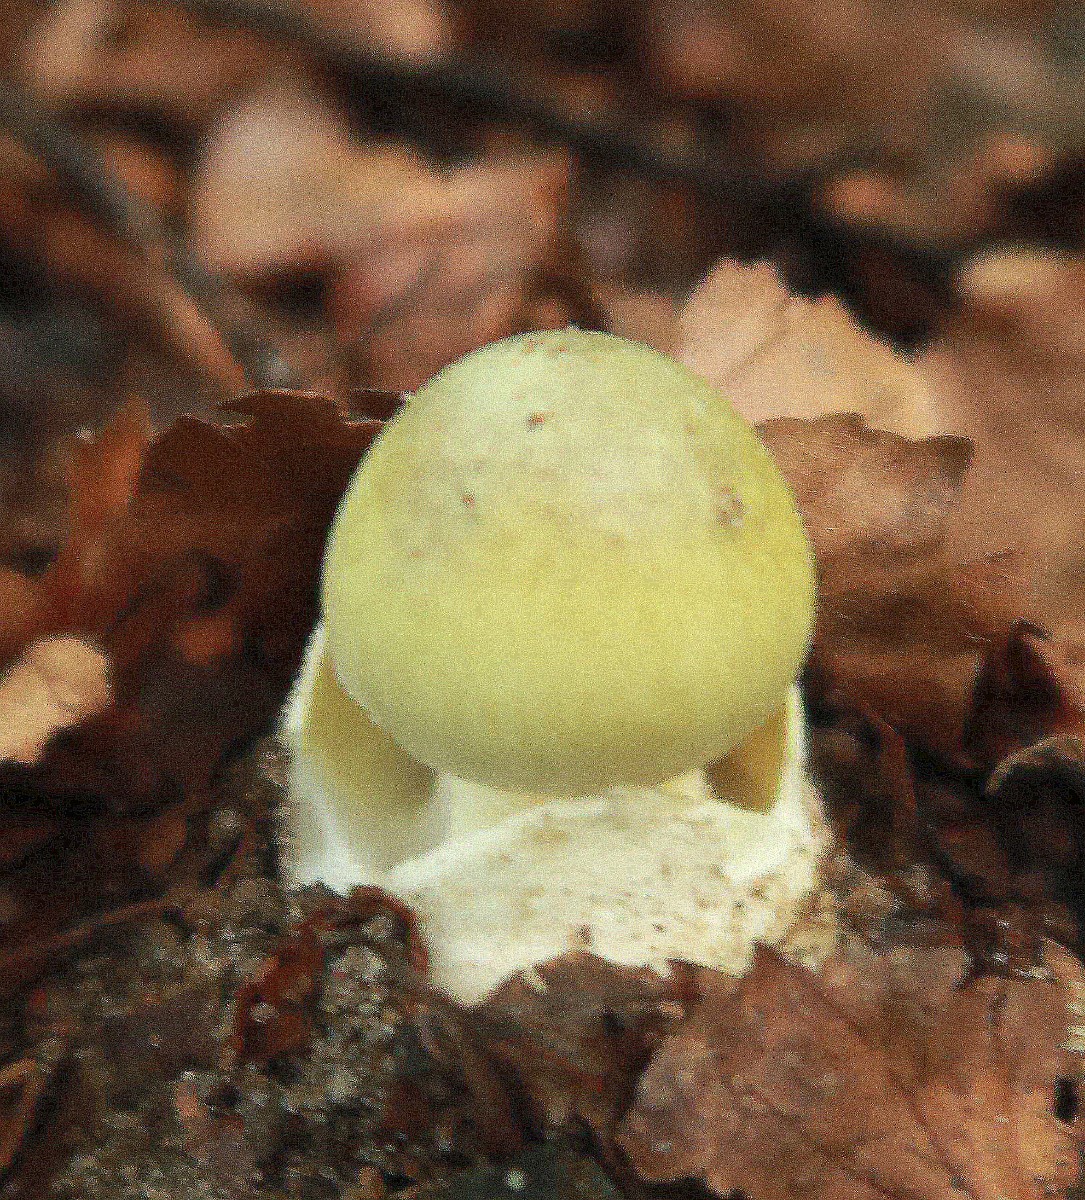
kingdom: Fungi
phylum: Basidiomycota
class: Agaricomycetes
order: Agaricales
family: Amanitaceae
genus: Amanita
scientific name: Amanita phalloides
